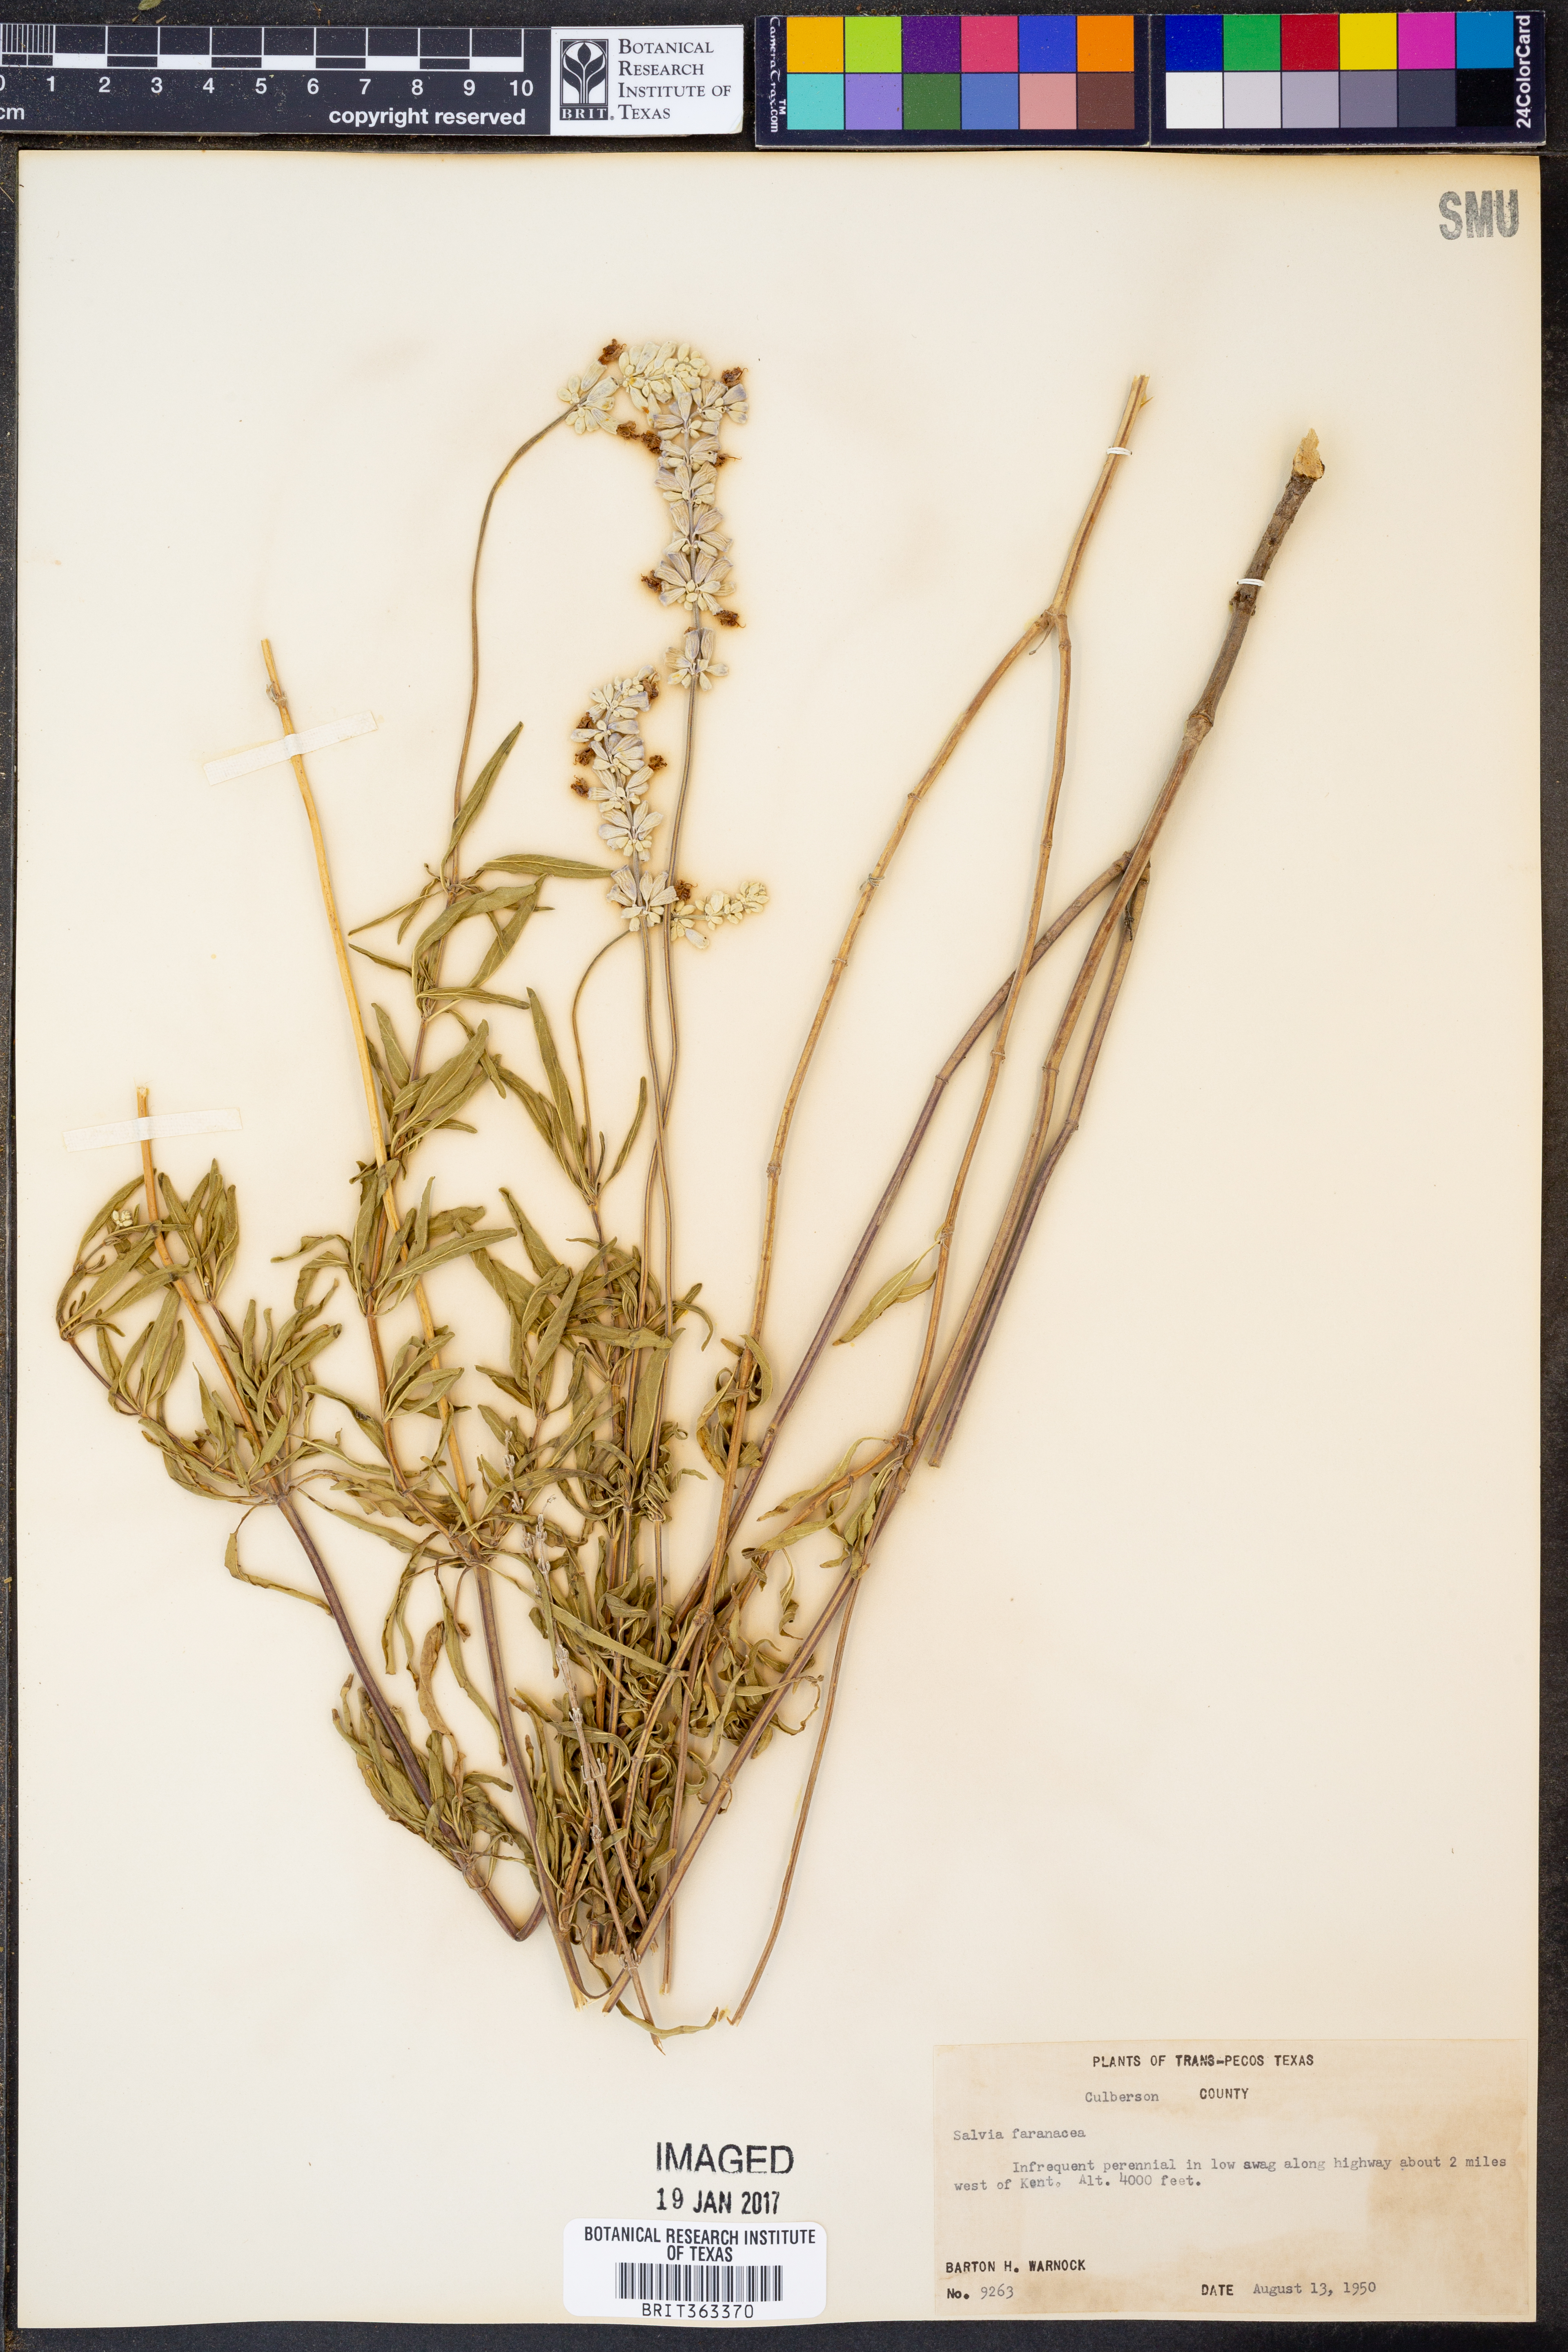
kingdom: Plantae
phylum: Tracheophyta
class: Magnoliopsida
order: Lamiales
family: Lamiaceae
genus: Salvia
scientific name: Salvia farinacea
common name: Mealy sage
